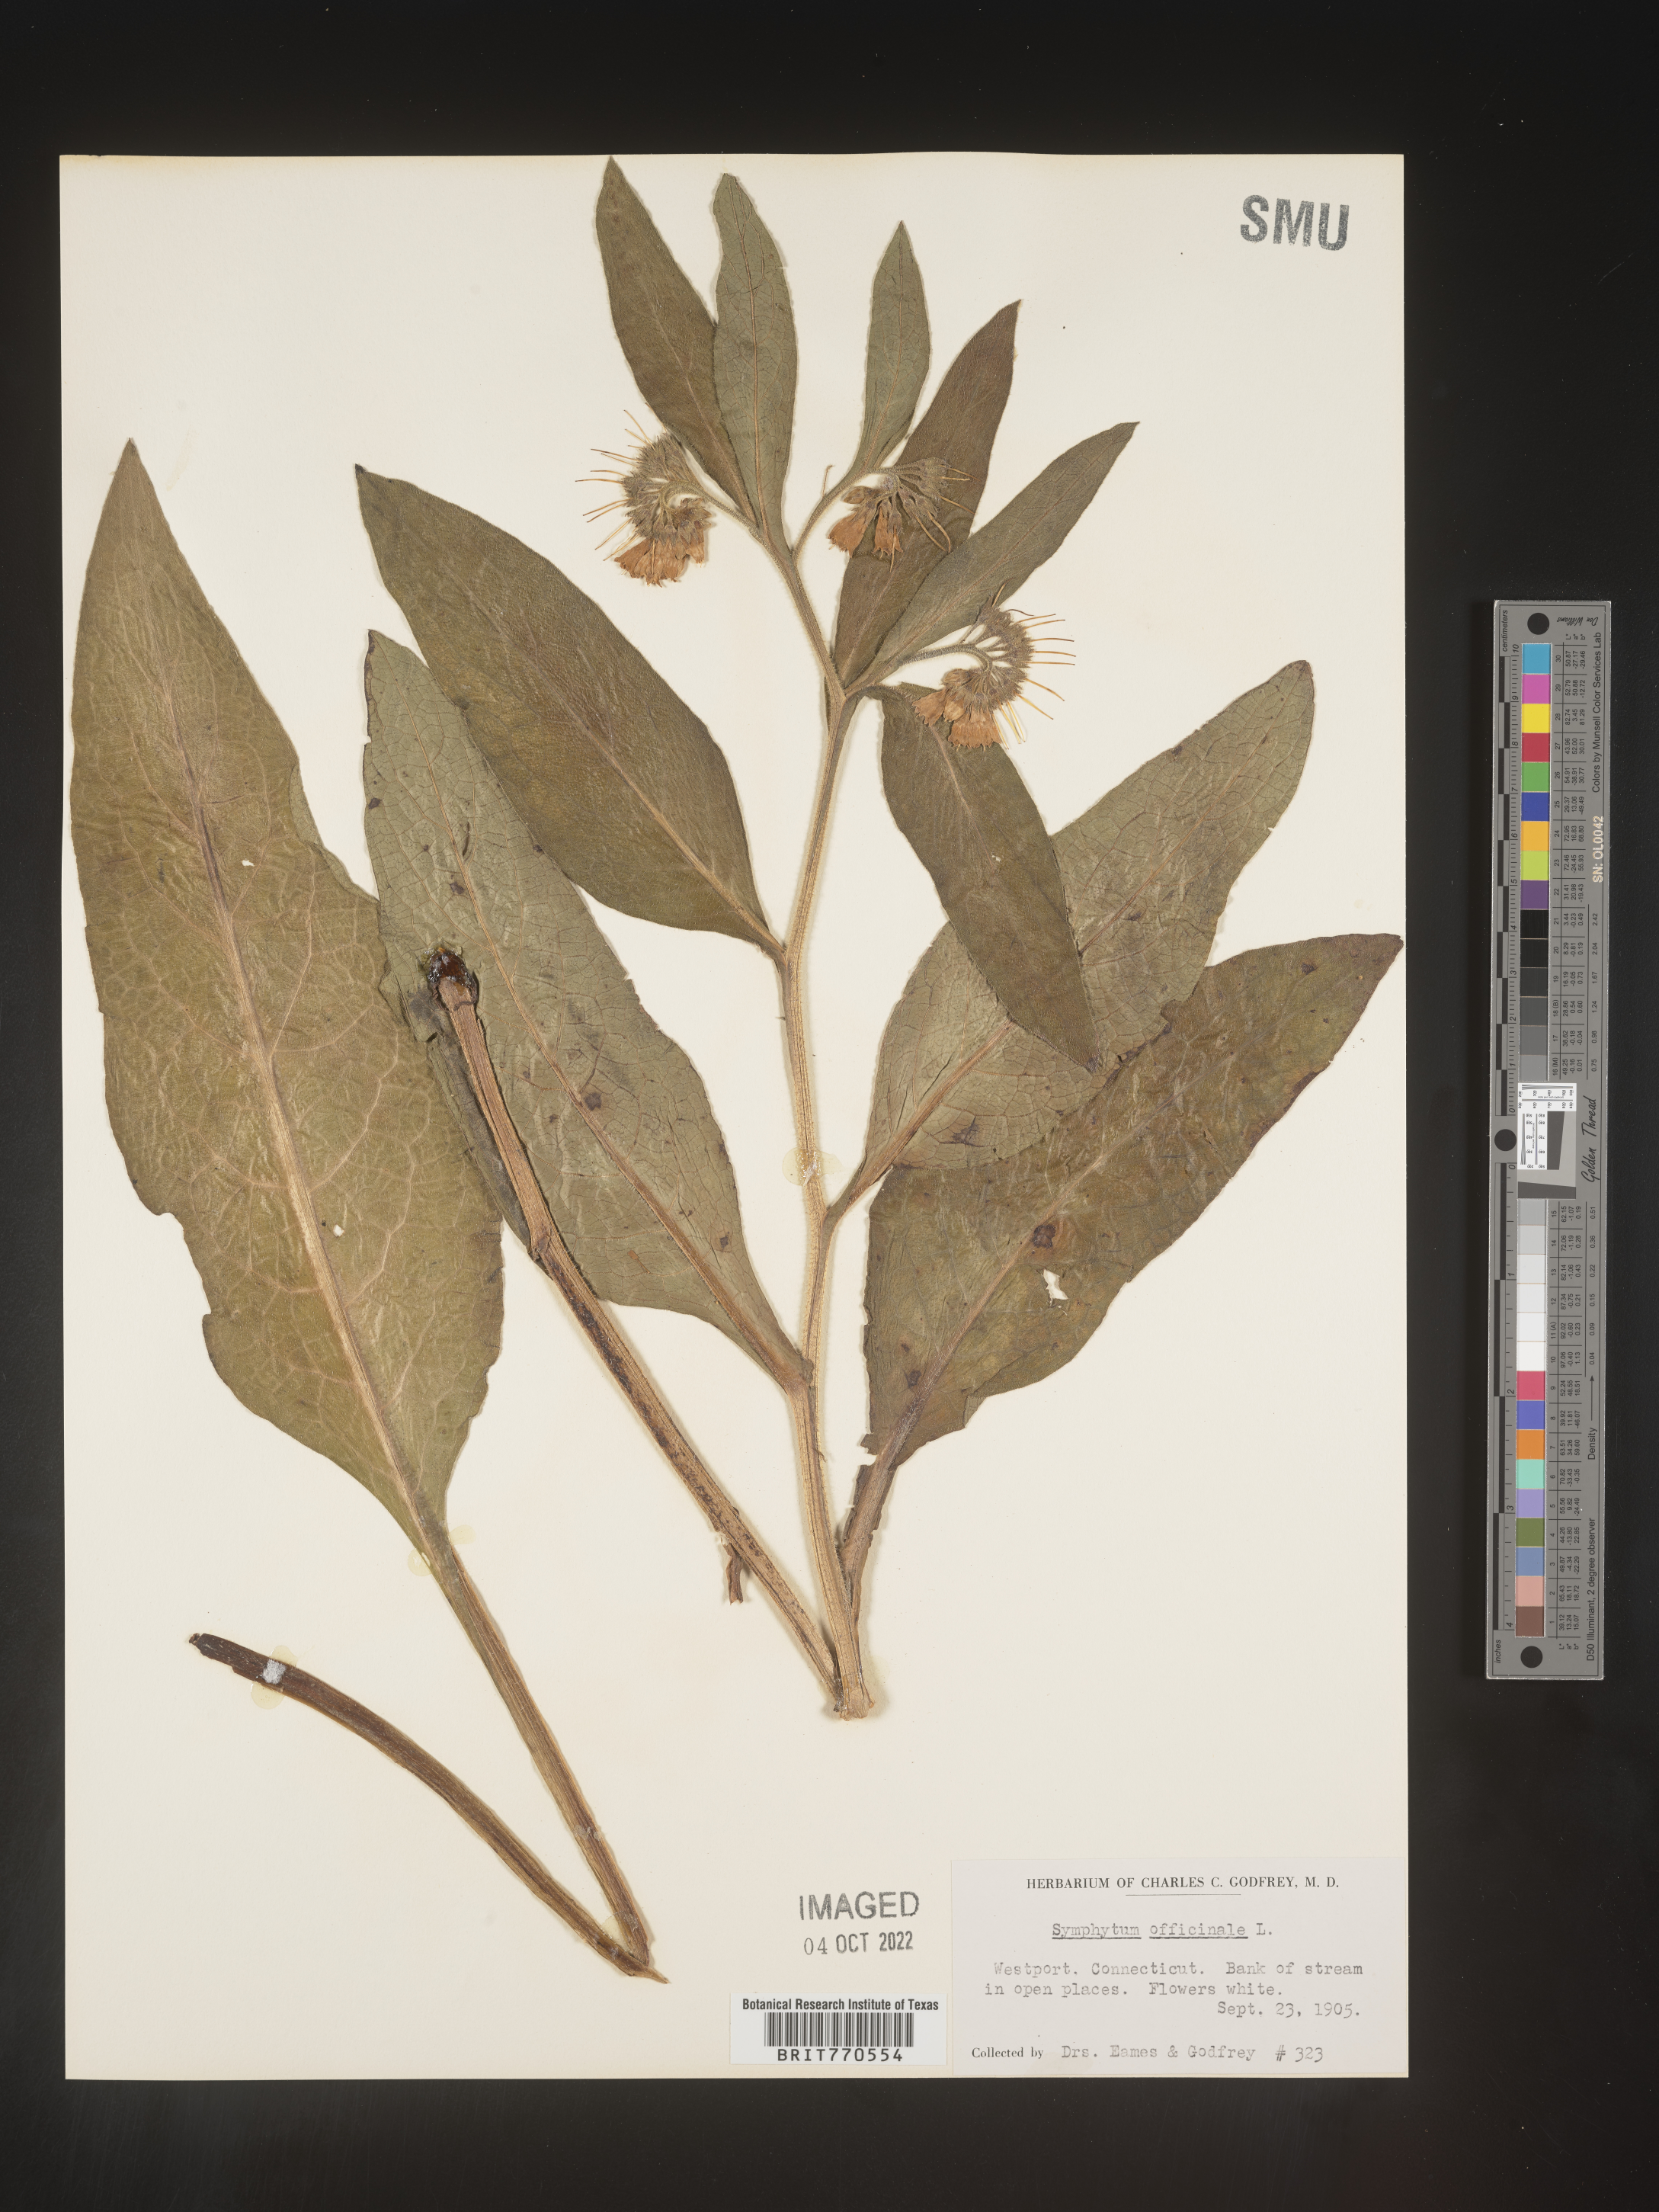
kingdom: Plantae
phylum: Tracheophyta
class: Magnoliopsida
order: Boraginales
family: Boraginaceae
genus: Symphytum
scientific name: Symphytum
